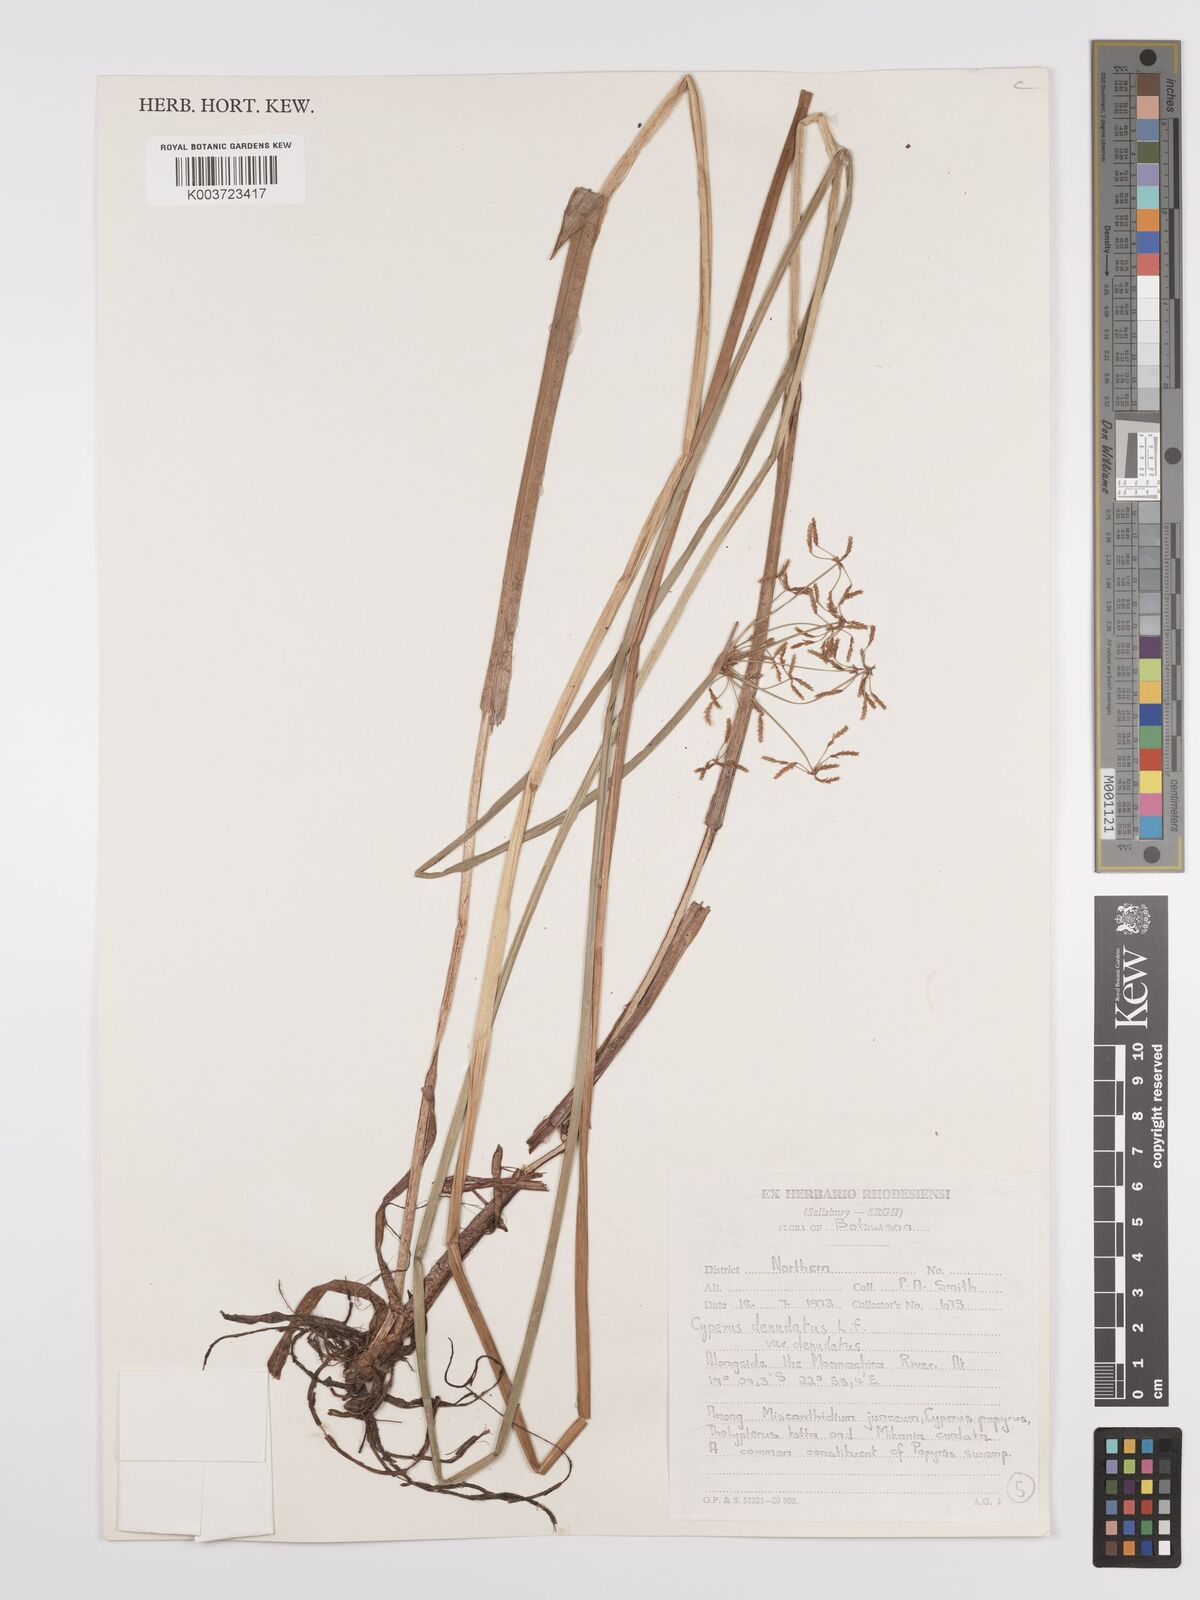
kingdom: Plantae
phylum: Tracheophyta
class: Liliopsida
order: Poales
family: Cyperaceae
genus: Cyperus
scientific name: Cyperus denudatus
